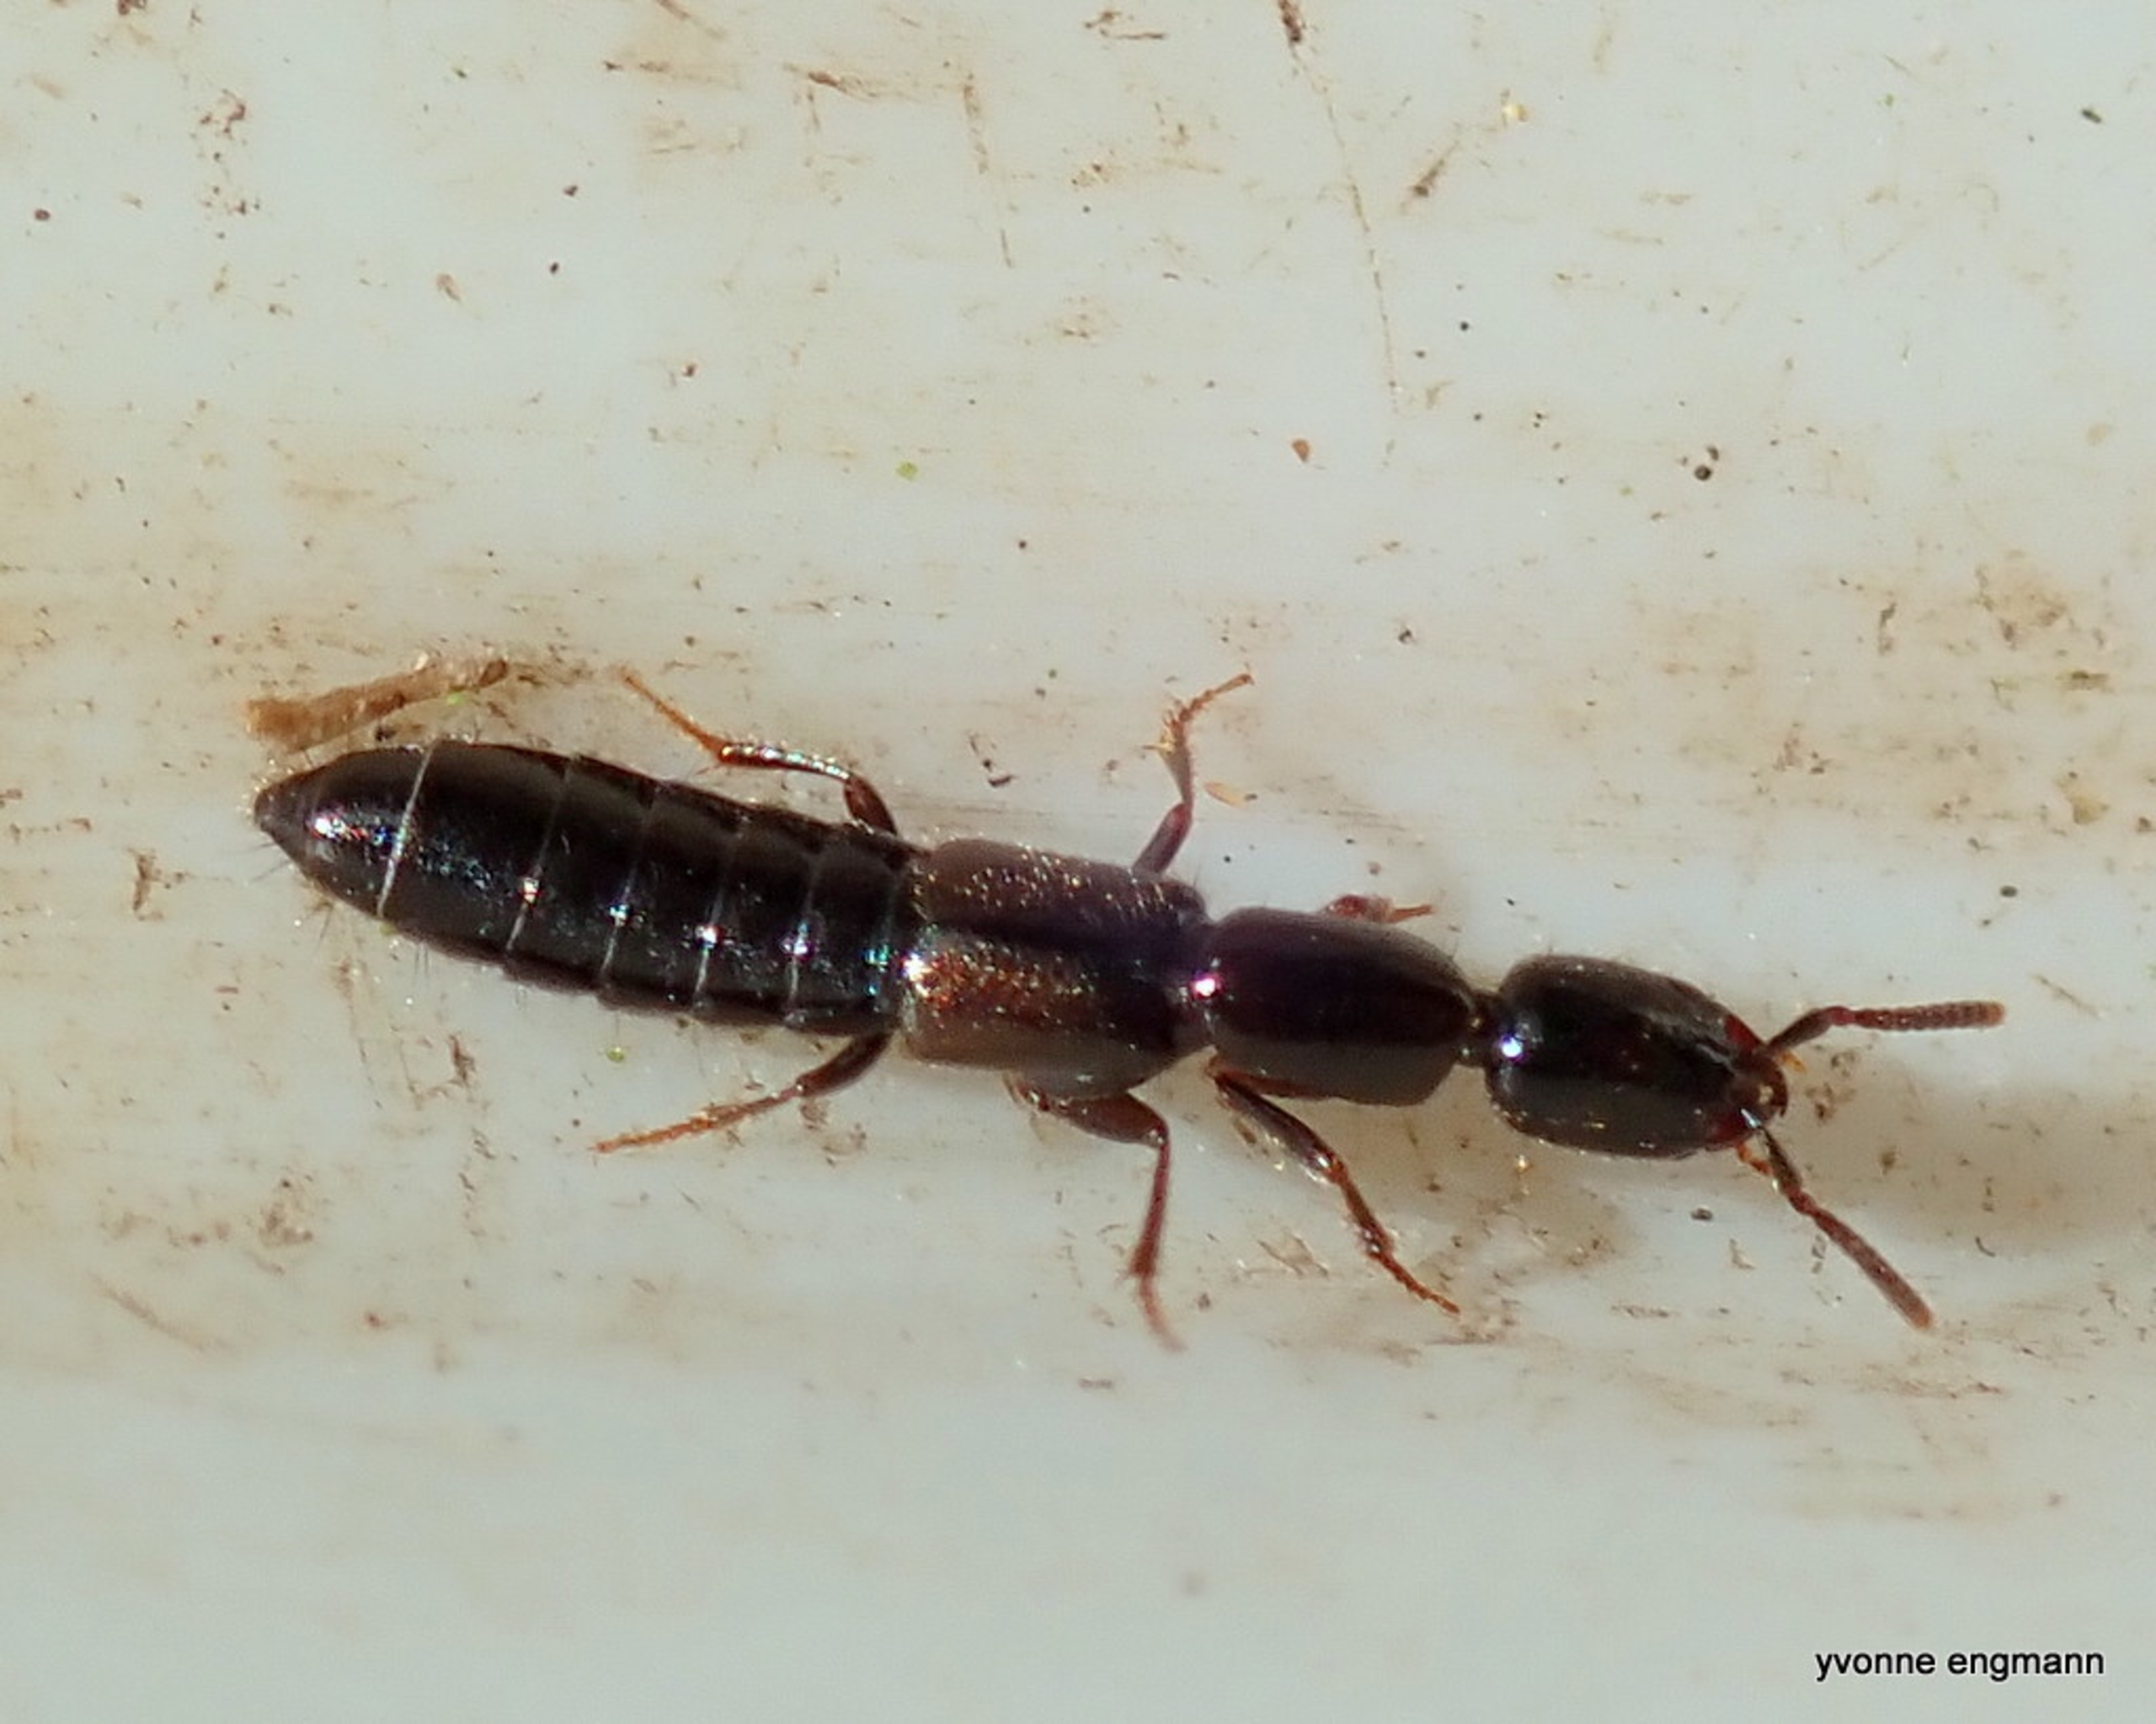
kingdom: Animalia
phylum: Arthropoda
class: Insecta
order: Coleoptera
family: Staphylinidae
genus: Xantholinus
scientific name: Xantholinus
